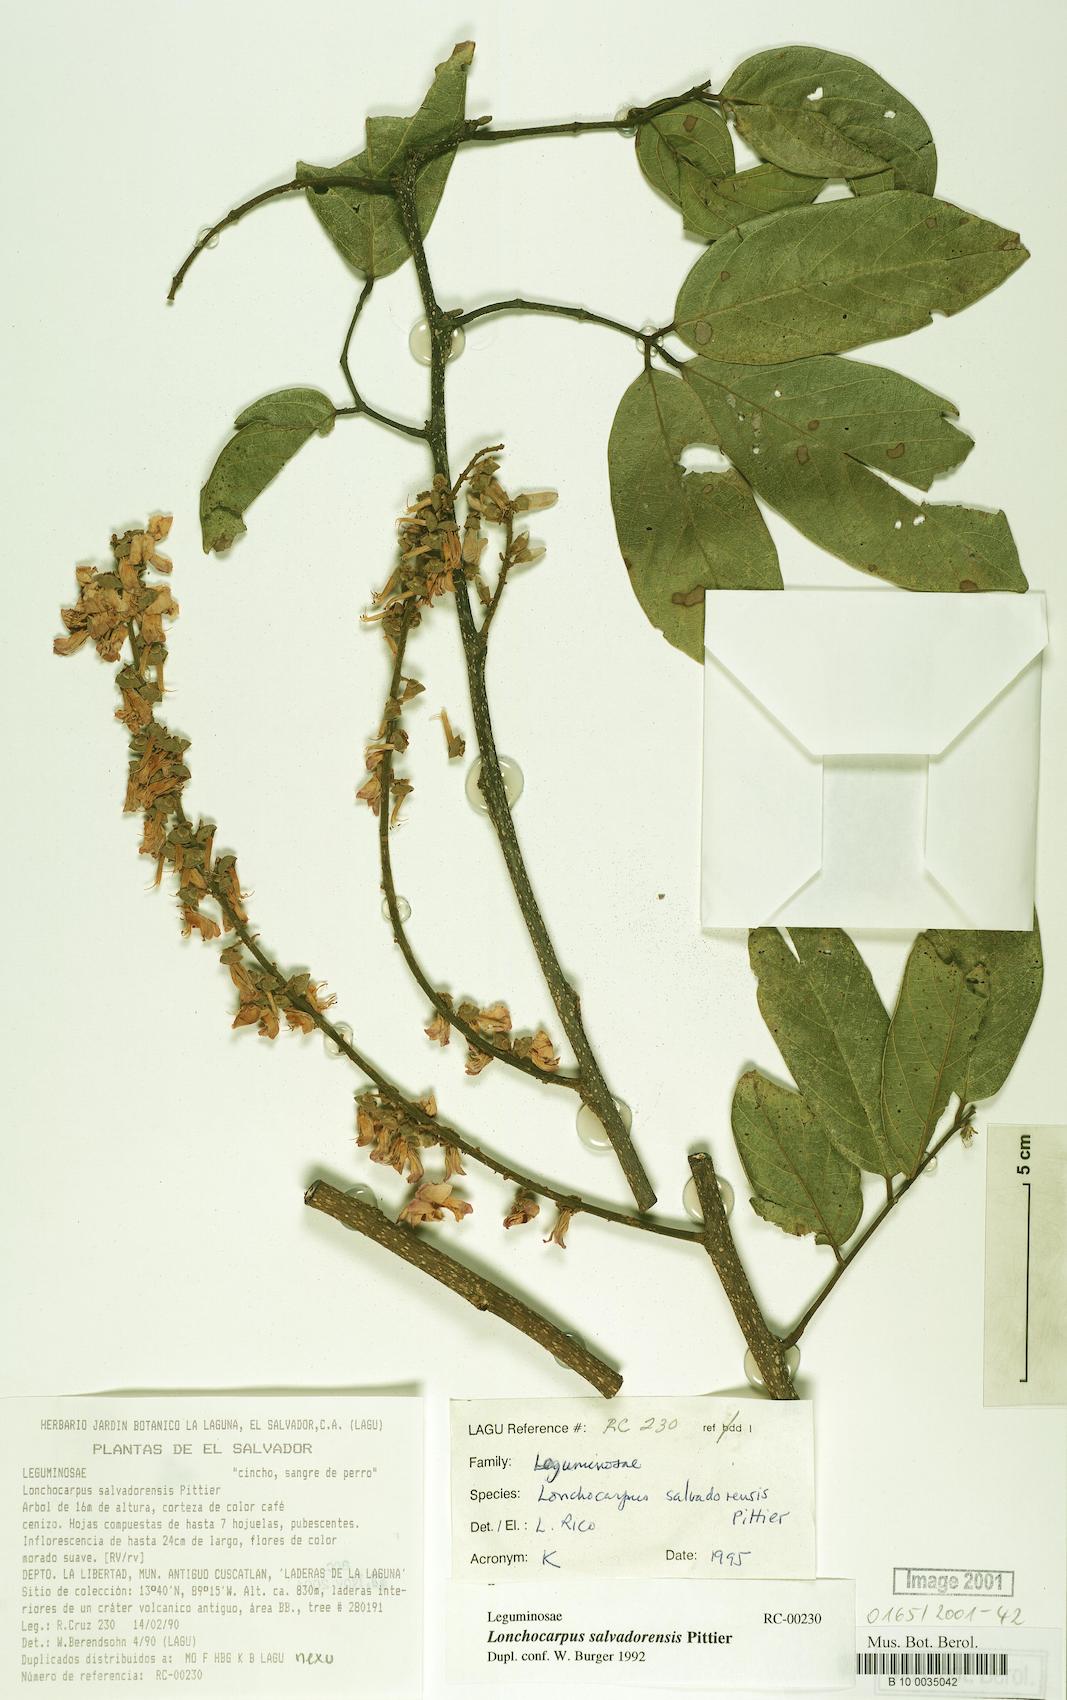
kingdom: Plantae
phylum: Tracheophyta
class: Magnoliopsida
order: Fabales
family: Fabaceae
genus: Lonchocarpus
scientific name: Lonchocarpus salvadorensis
